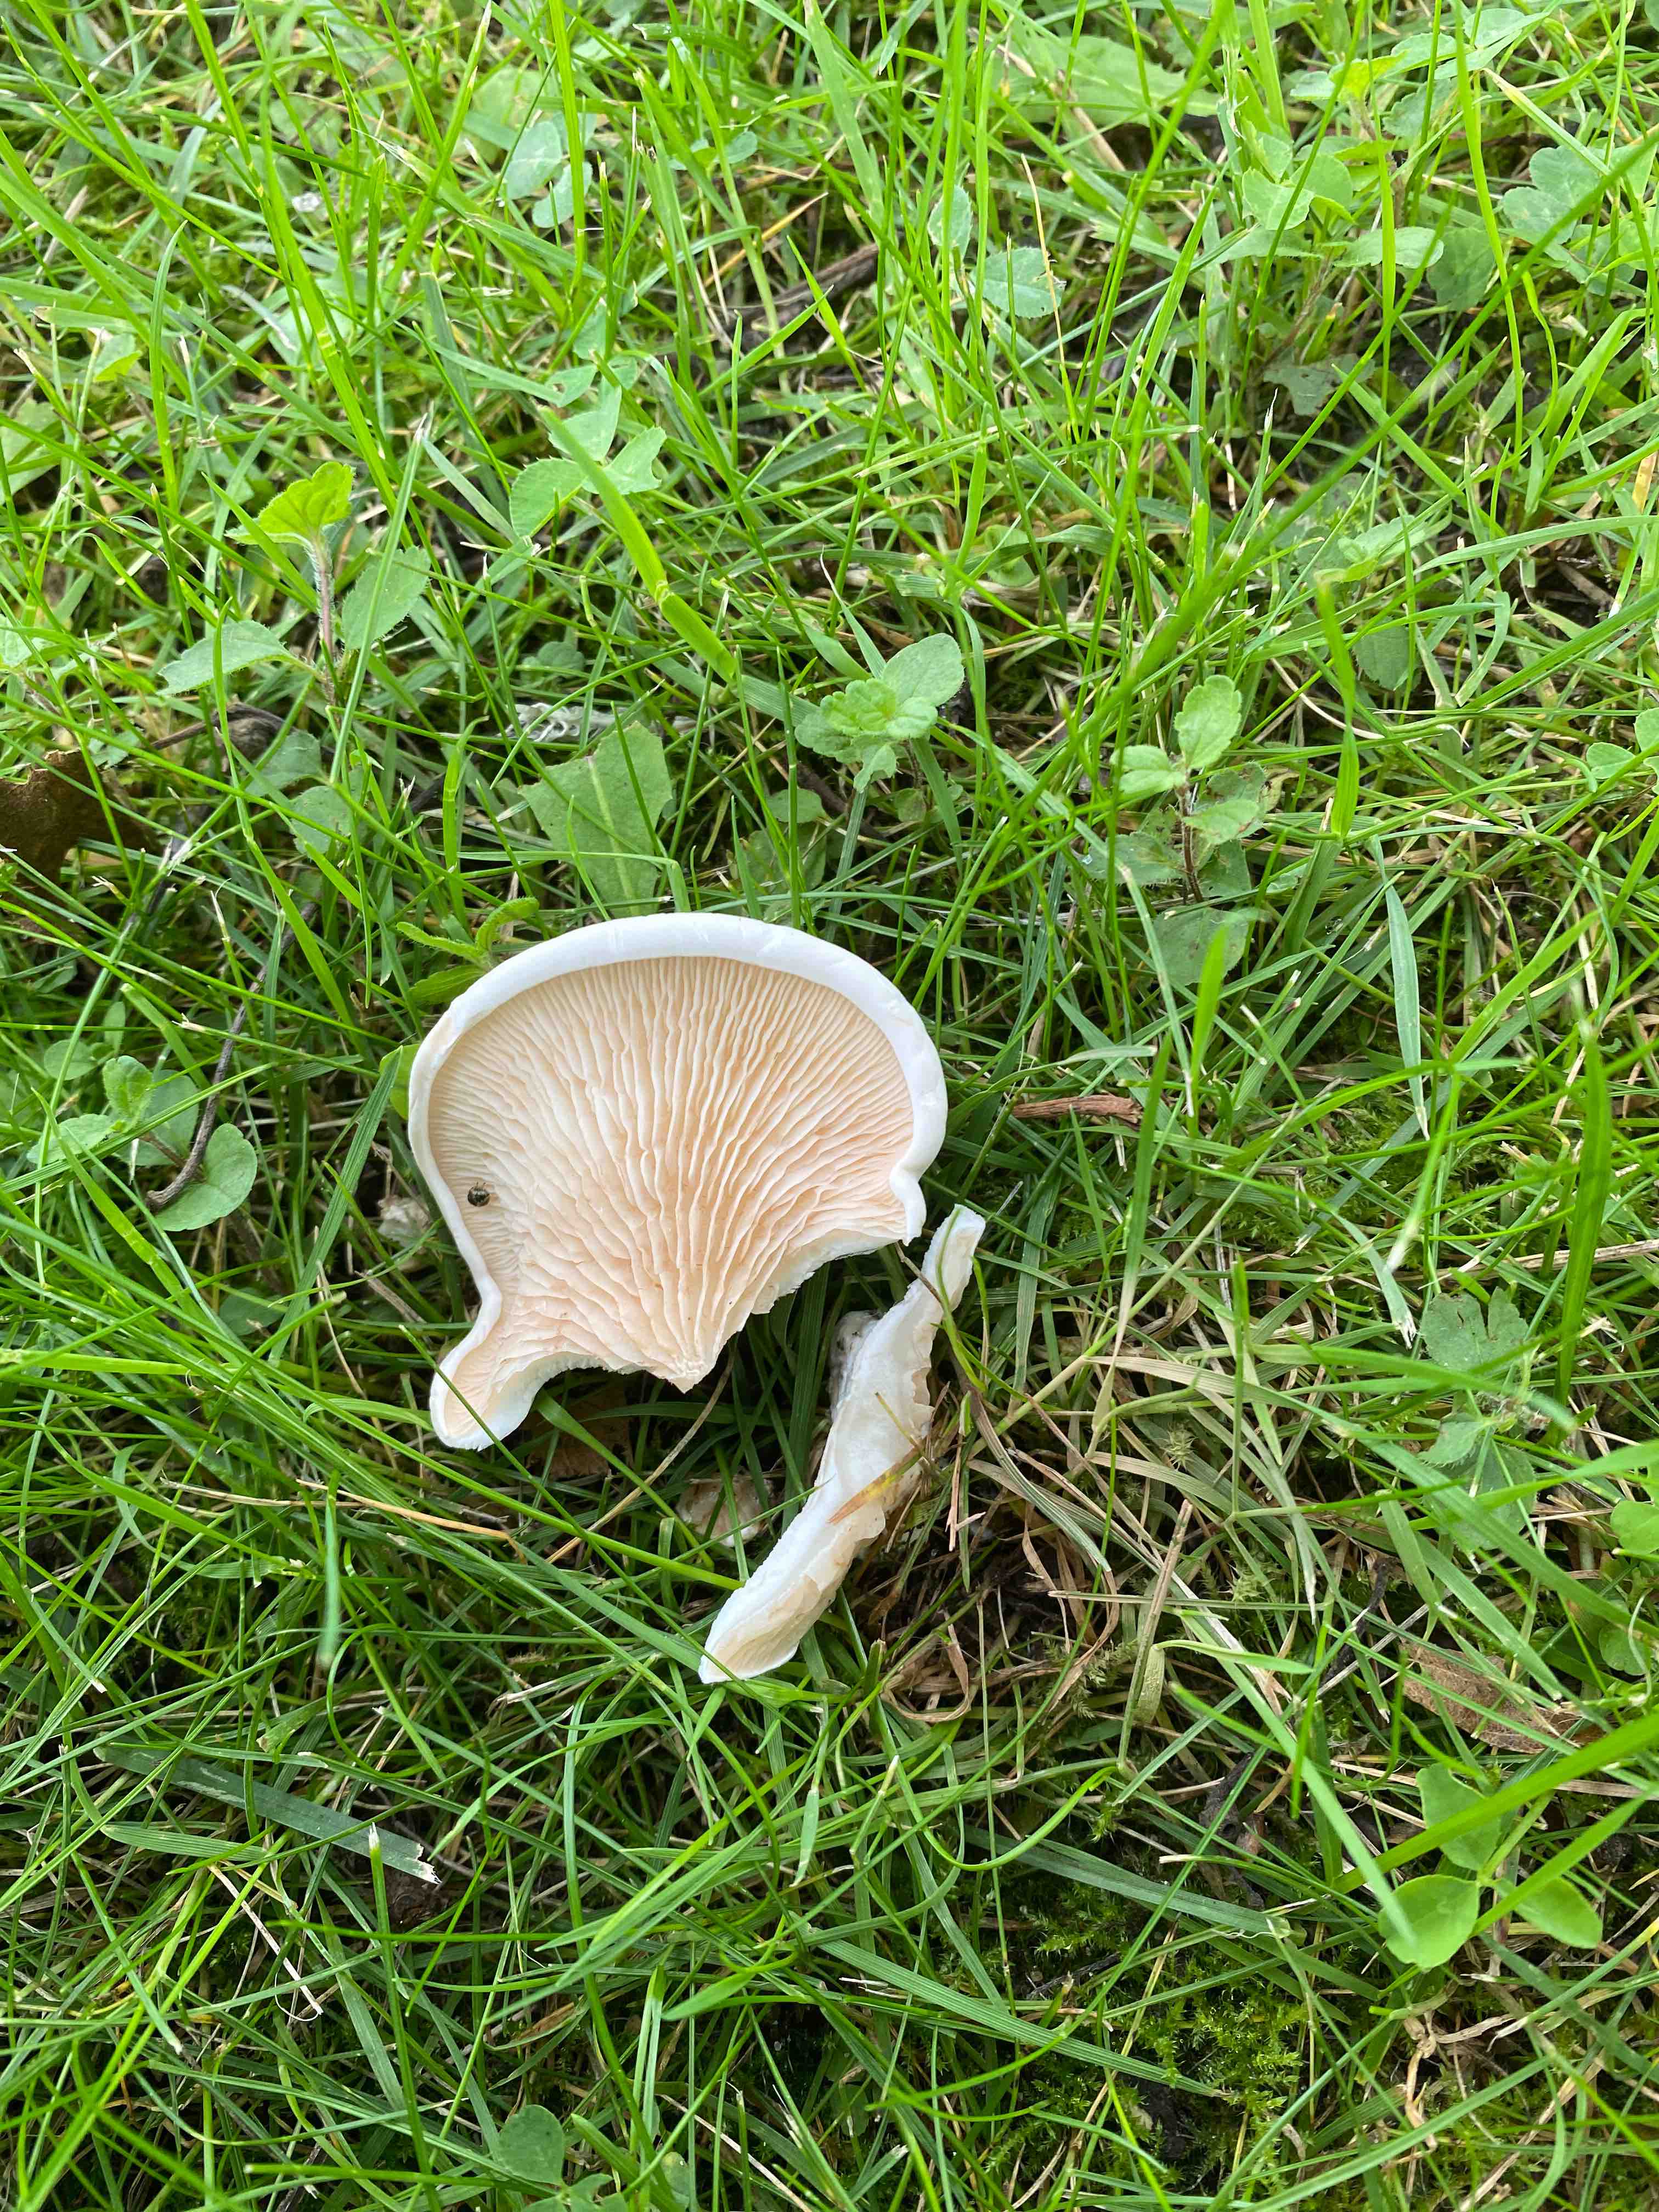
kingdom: Fungi
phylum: Basidiomycota
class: Agaricomycetes
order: Agaricales
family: Entolomataceae
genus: Clitopilus
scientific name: Clitopilus prunulus
